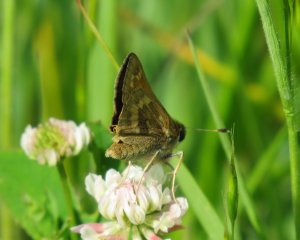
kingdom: Animalia
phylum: Arthropoda
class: Insecta
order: Lepidoptera
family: Hesperiidae
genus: Hesperia
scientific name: Hesperia sassacus
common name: Sassacus Skipper
